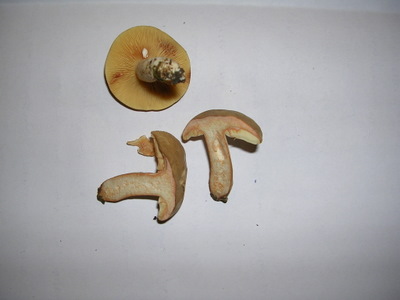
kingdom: Fungi
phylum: Basidiomycota
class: Agaricomycetes
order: Russulales
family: Russulaceae
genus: Lactarius
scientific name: Lactarius azonites
